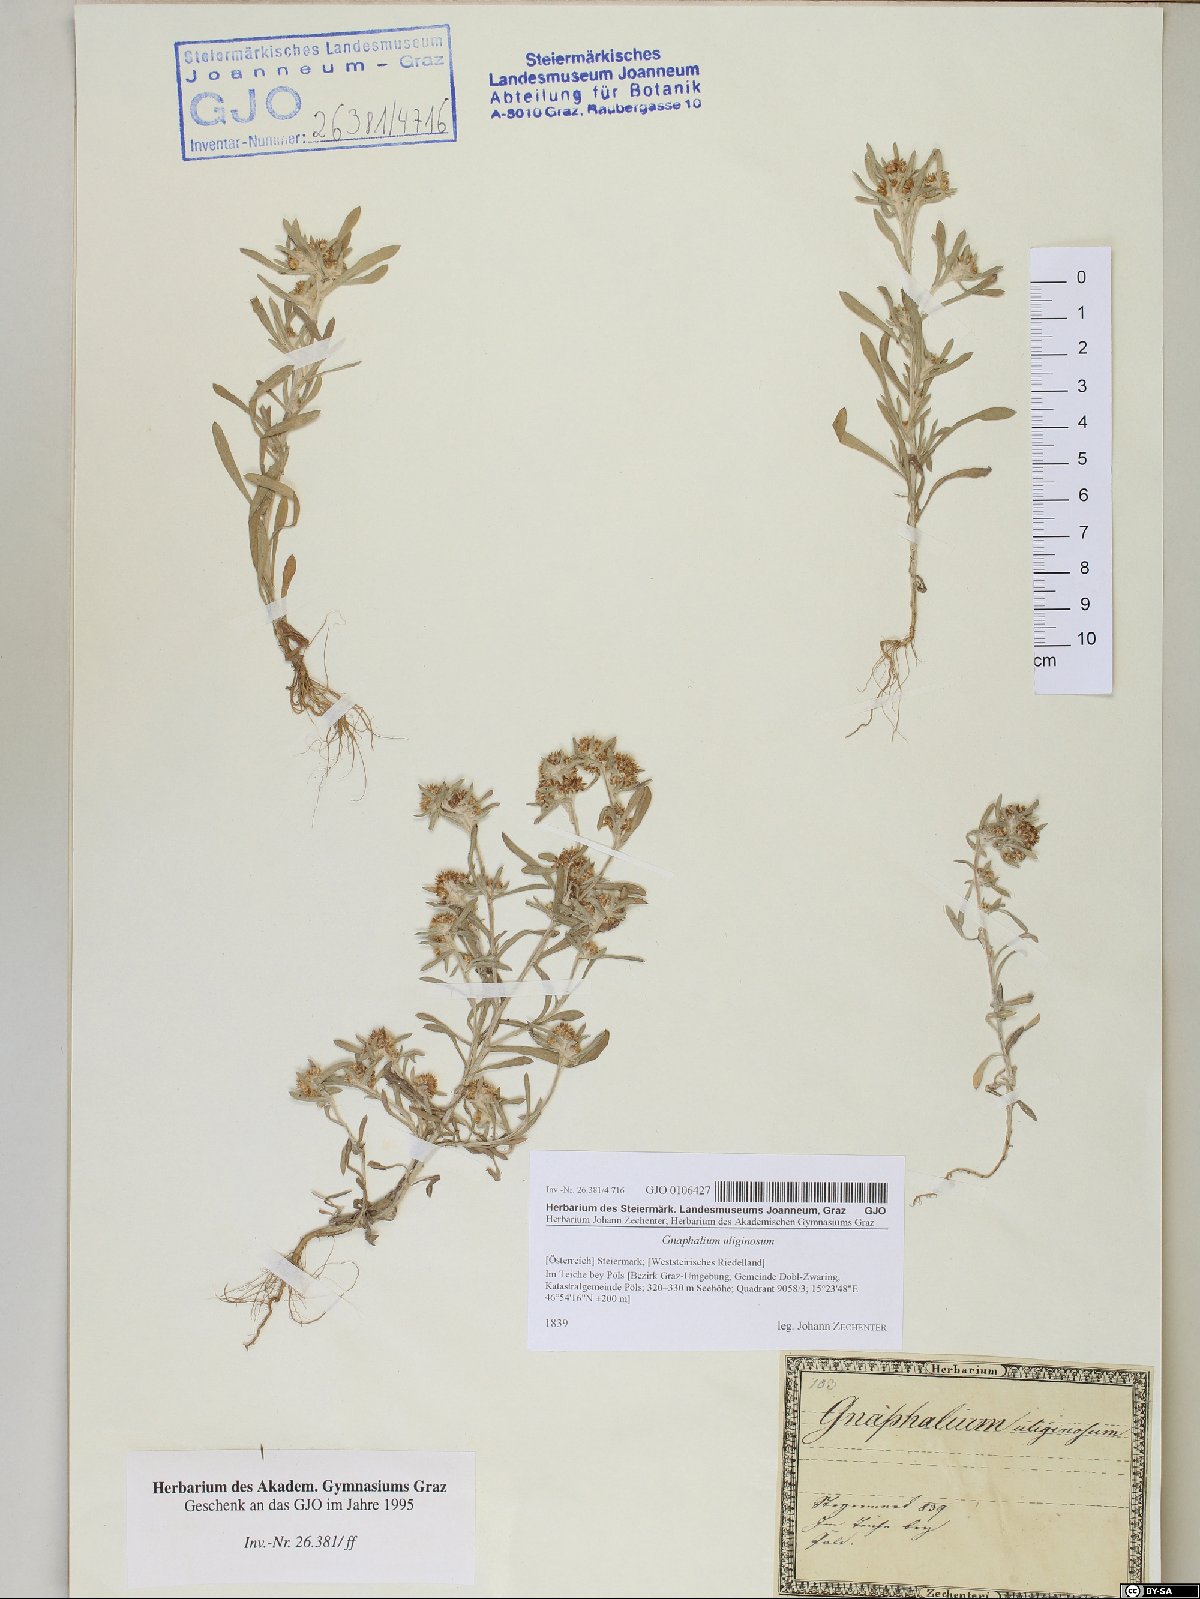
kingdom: Plantae
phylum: Tracheophyta
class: Magnoliopsida
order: Asterales
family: Asteraceae
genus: Gnaphalium
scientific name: Gnaphalium uliginosum
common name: Marsh cudweed
